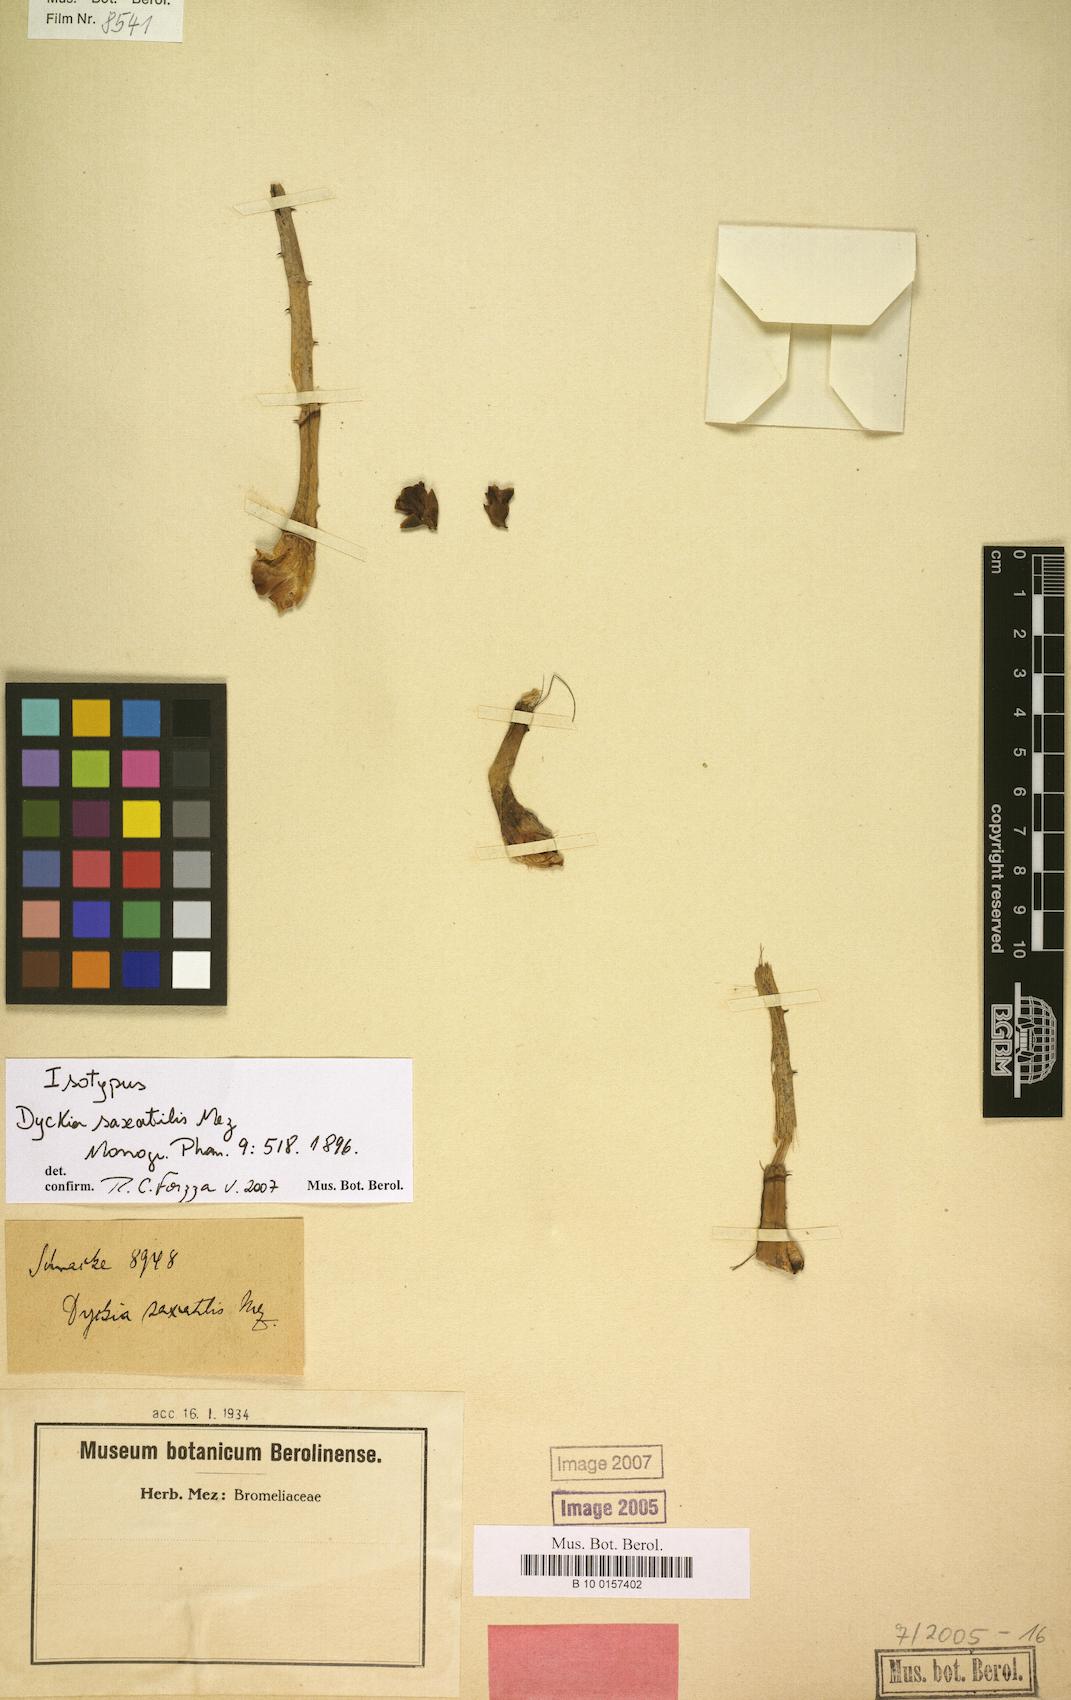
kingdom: Plantae
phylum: Tracheophyta
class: Liliopsida
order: Poales
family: Bromeliaceae
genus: Dyckia
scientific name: Dyckia saxatilis
